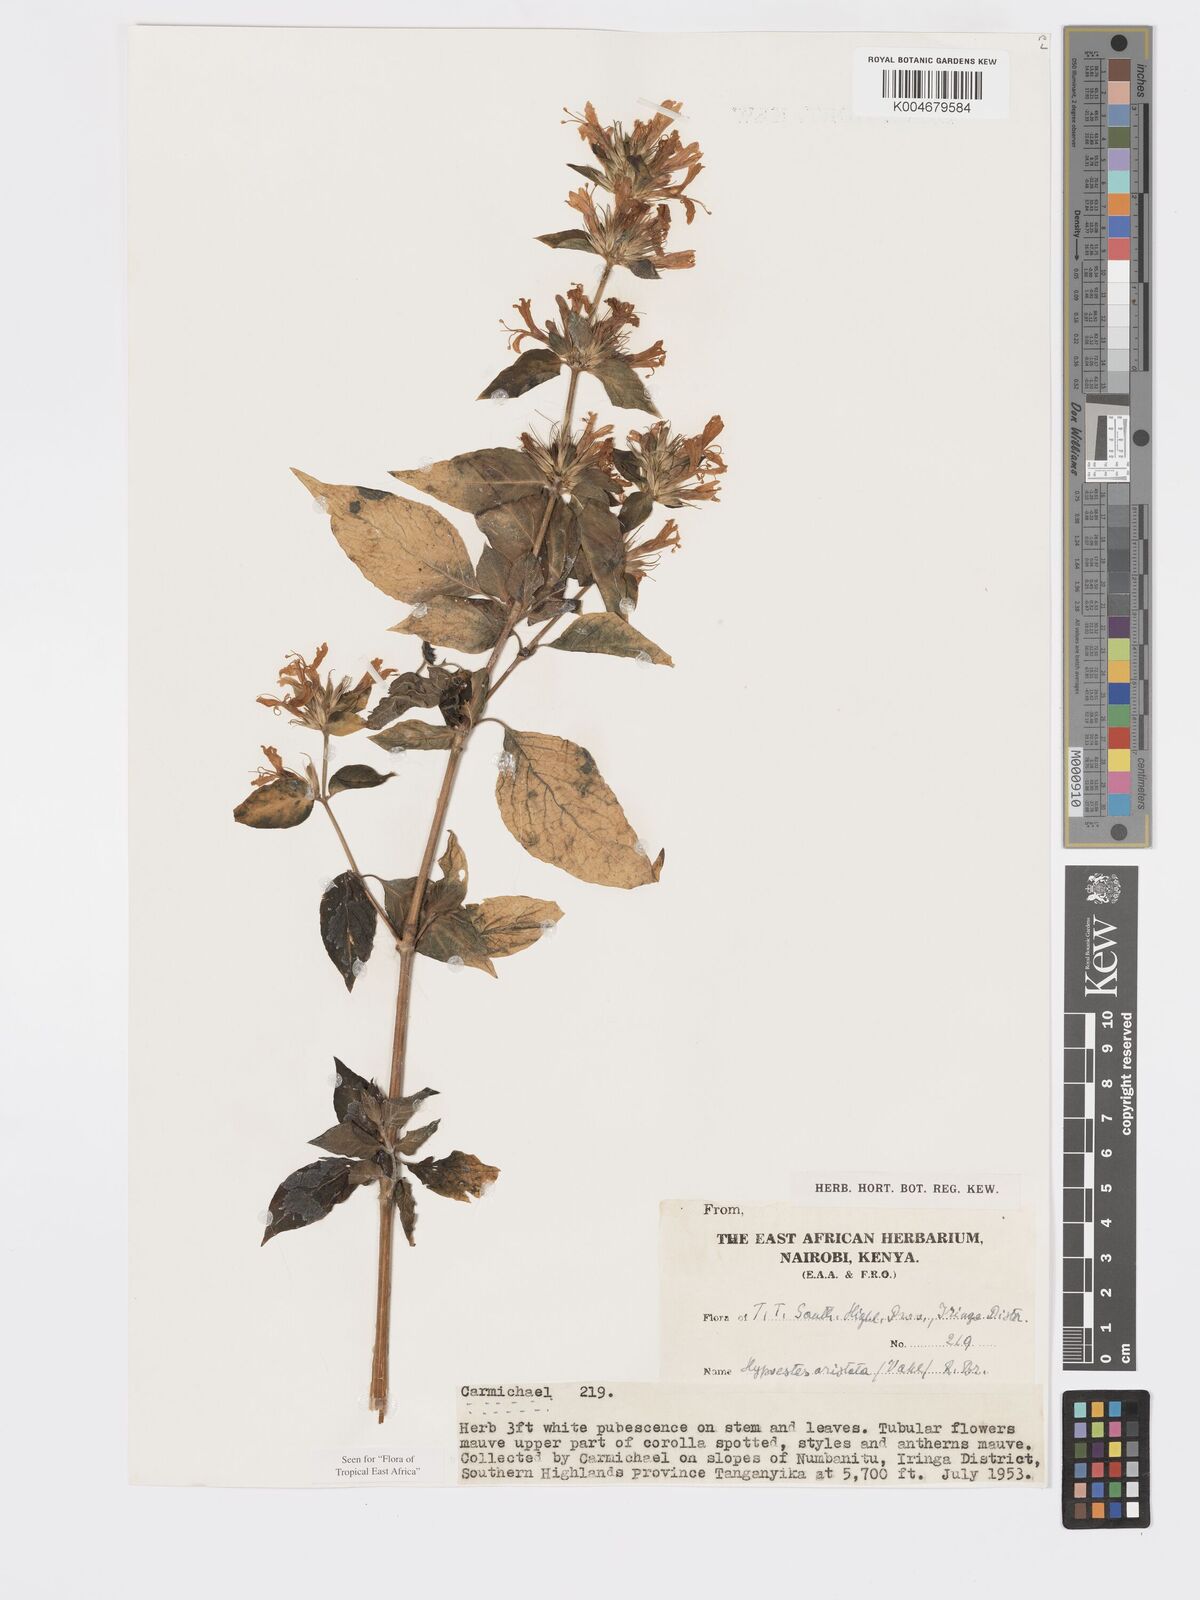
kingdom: Plantae
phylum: Tracheophyta
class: Magnoliopsida
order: Lamiales
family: Acanthaceae
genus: Hypoestes
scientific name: Hypoestes aristata
